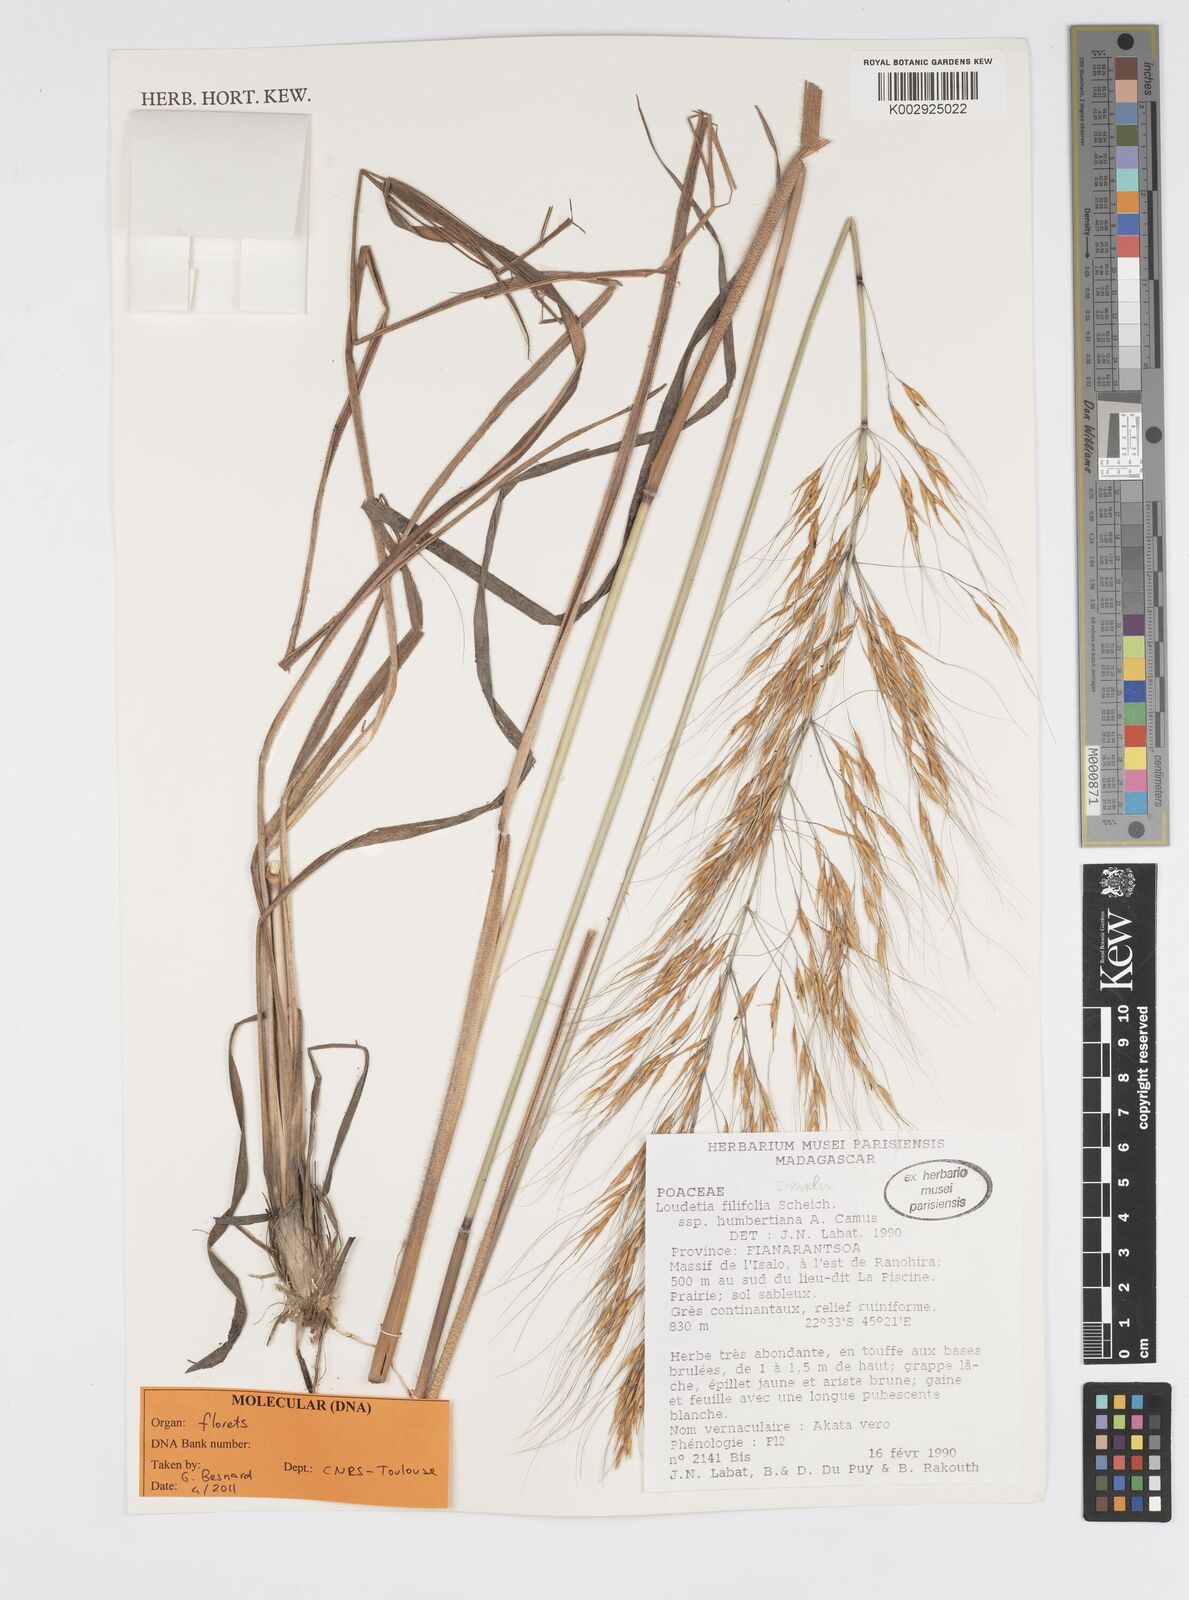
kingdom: Plantae
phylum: Tracheophyta
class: Liliopsida
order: Poales
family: Poaceae
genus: Loudetia
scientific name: Loudetia
